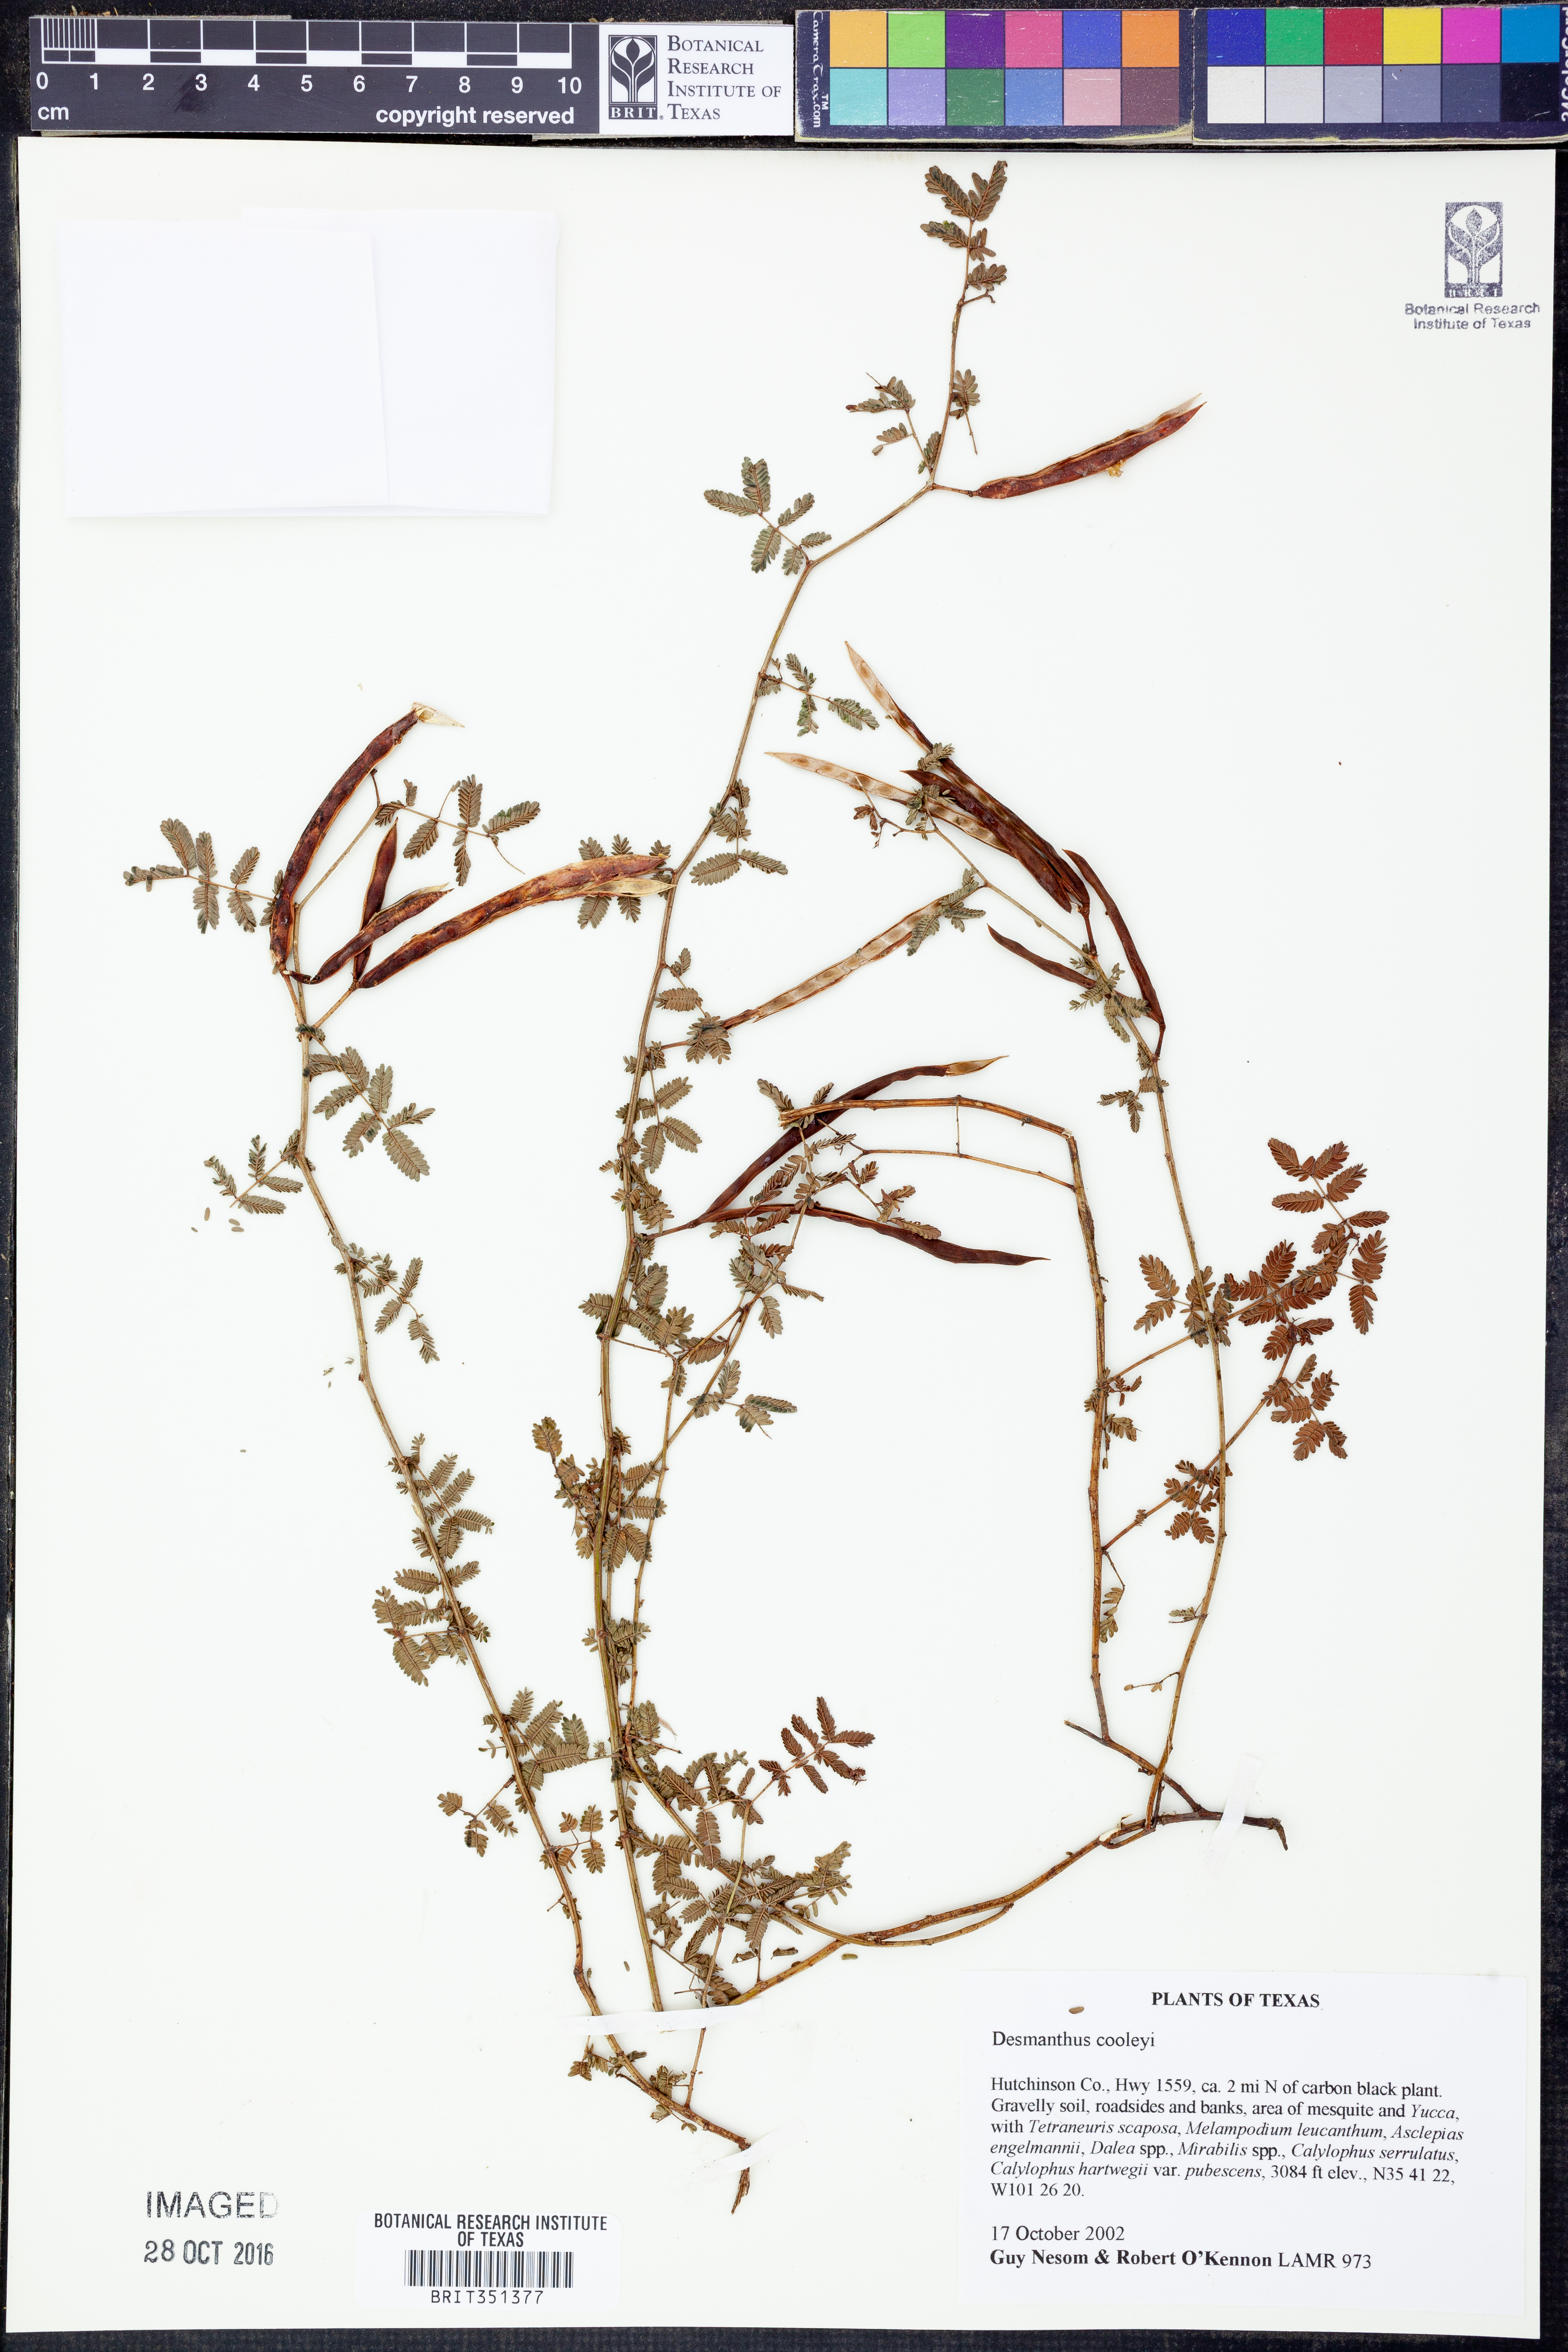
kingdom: Plantae
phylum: Tracheophyta
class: Magnoliopsida
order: Fabales
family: Fabaceae
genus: Desmanthus
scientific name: Desmanthus cooleyi
